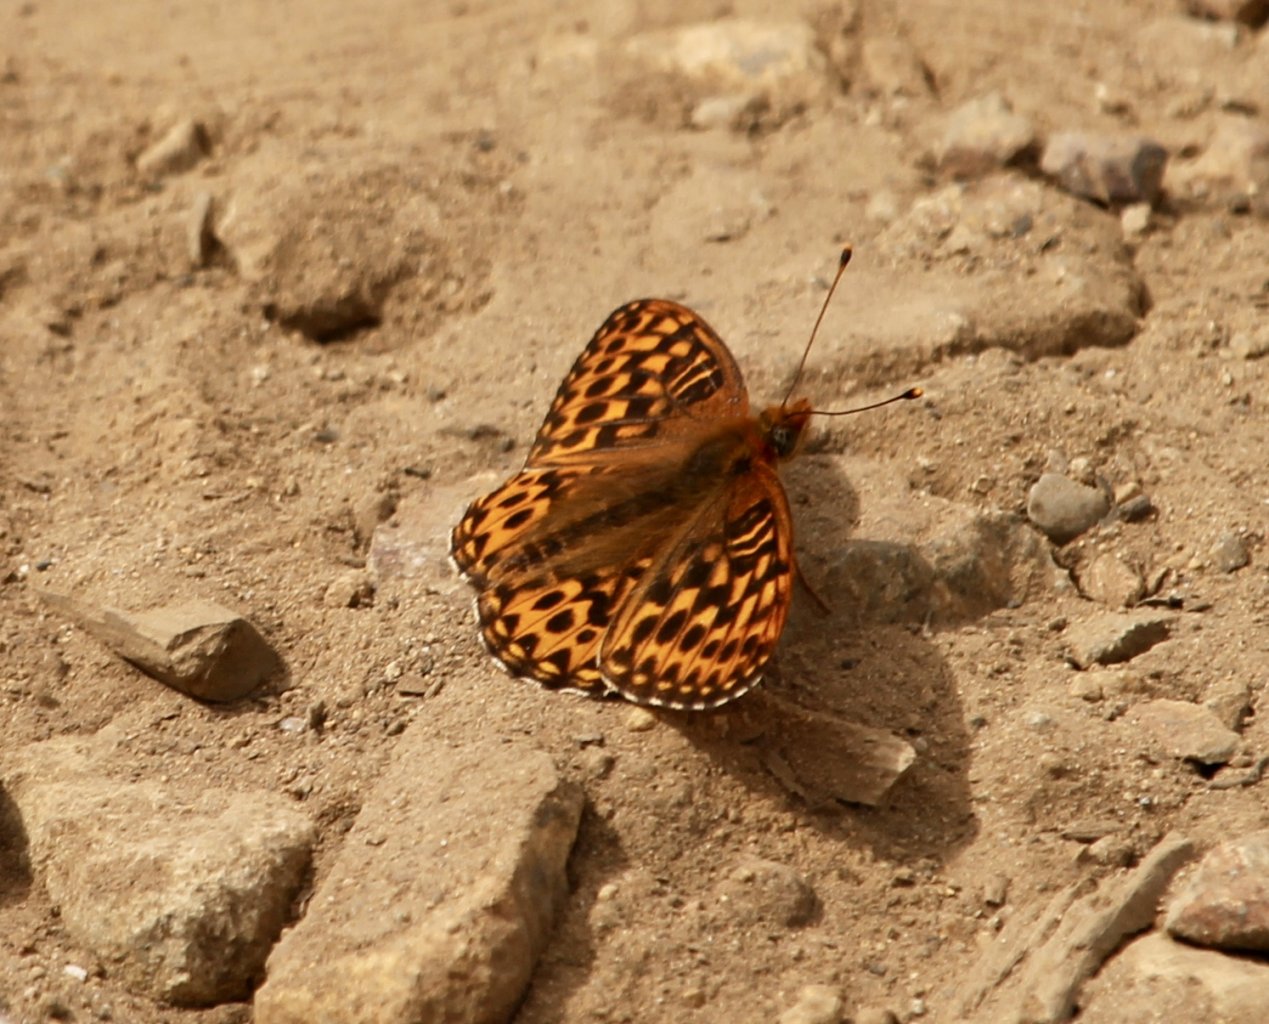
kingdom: Animalia
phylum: Arthropoda
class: Insecta
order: Lepidoptera
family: Nymphalidae
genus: Speyeria
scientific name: Speyeria hydaspe
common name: Hydaspe Fritillary
